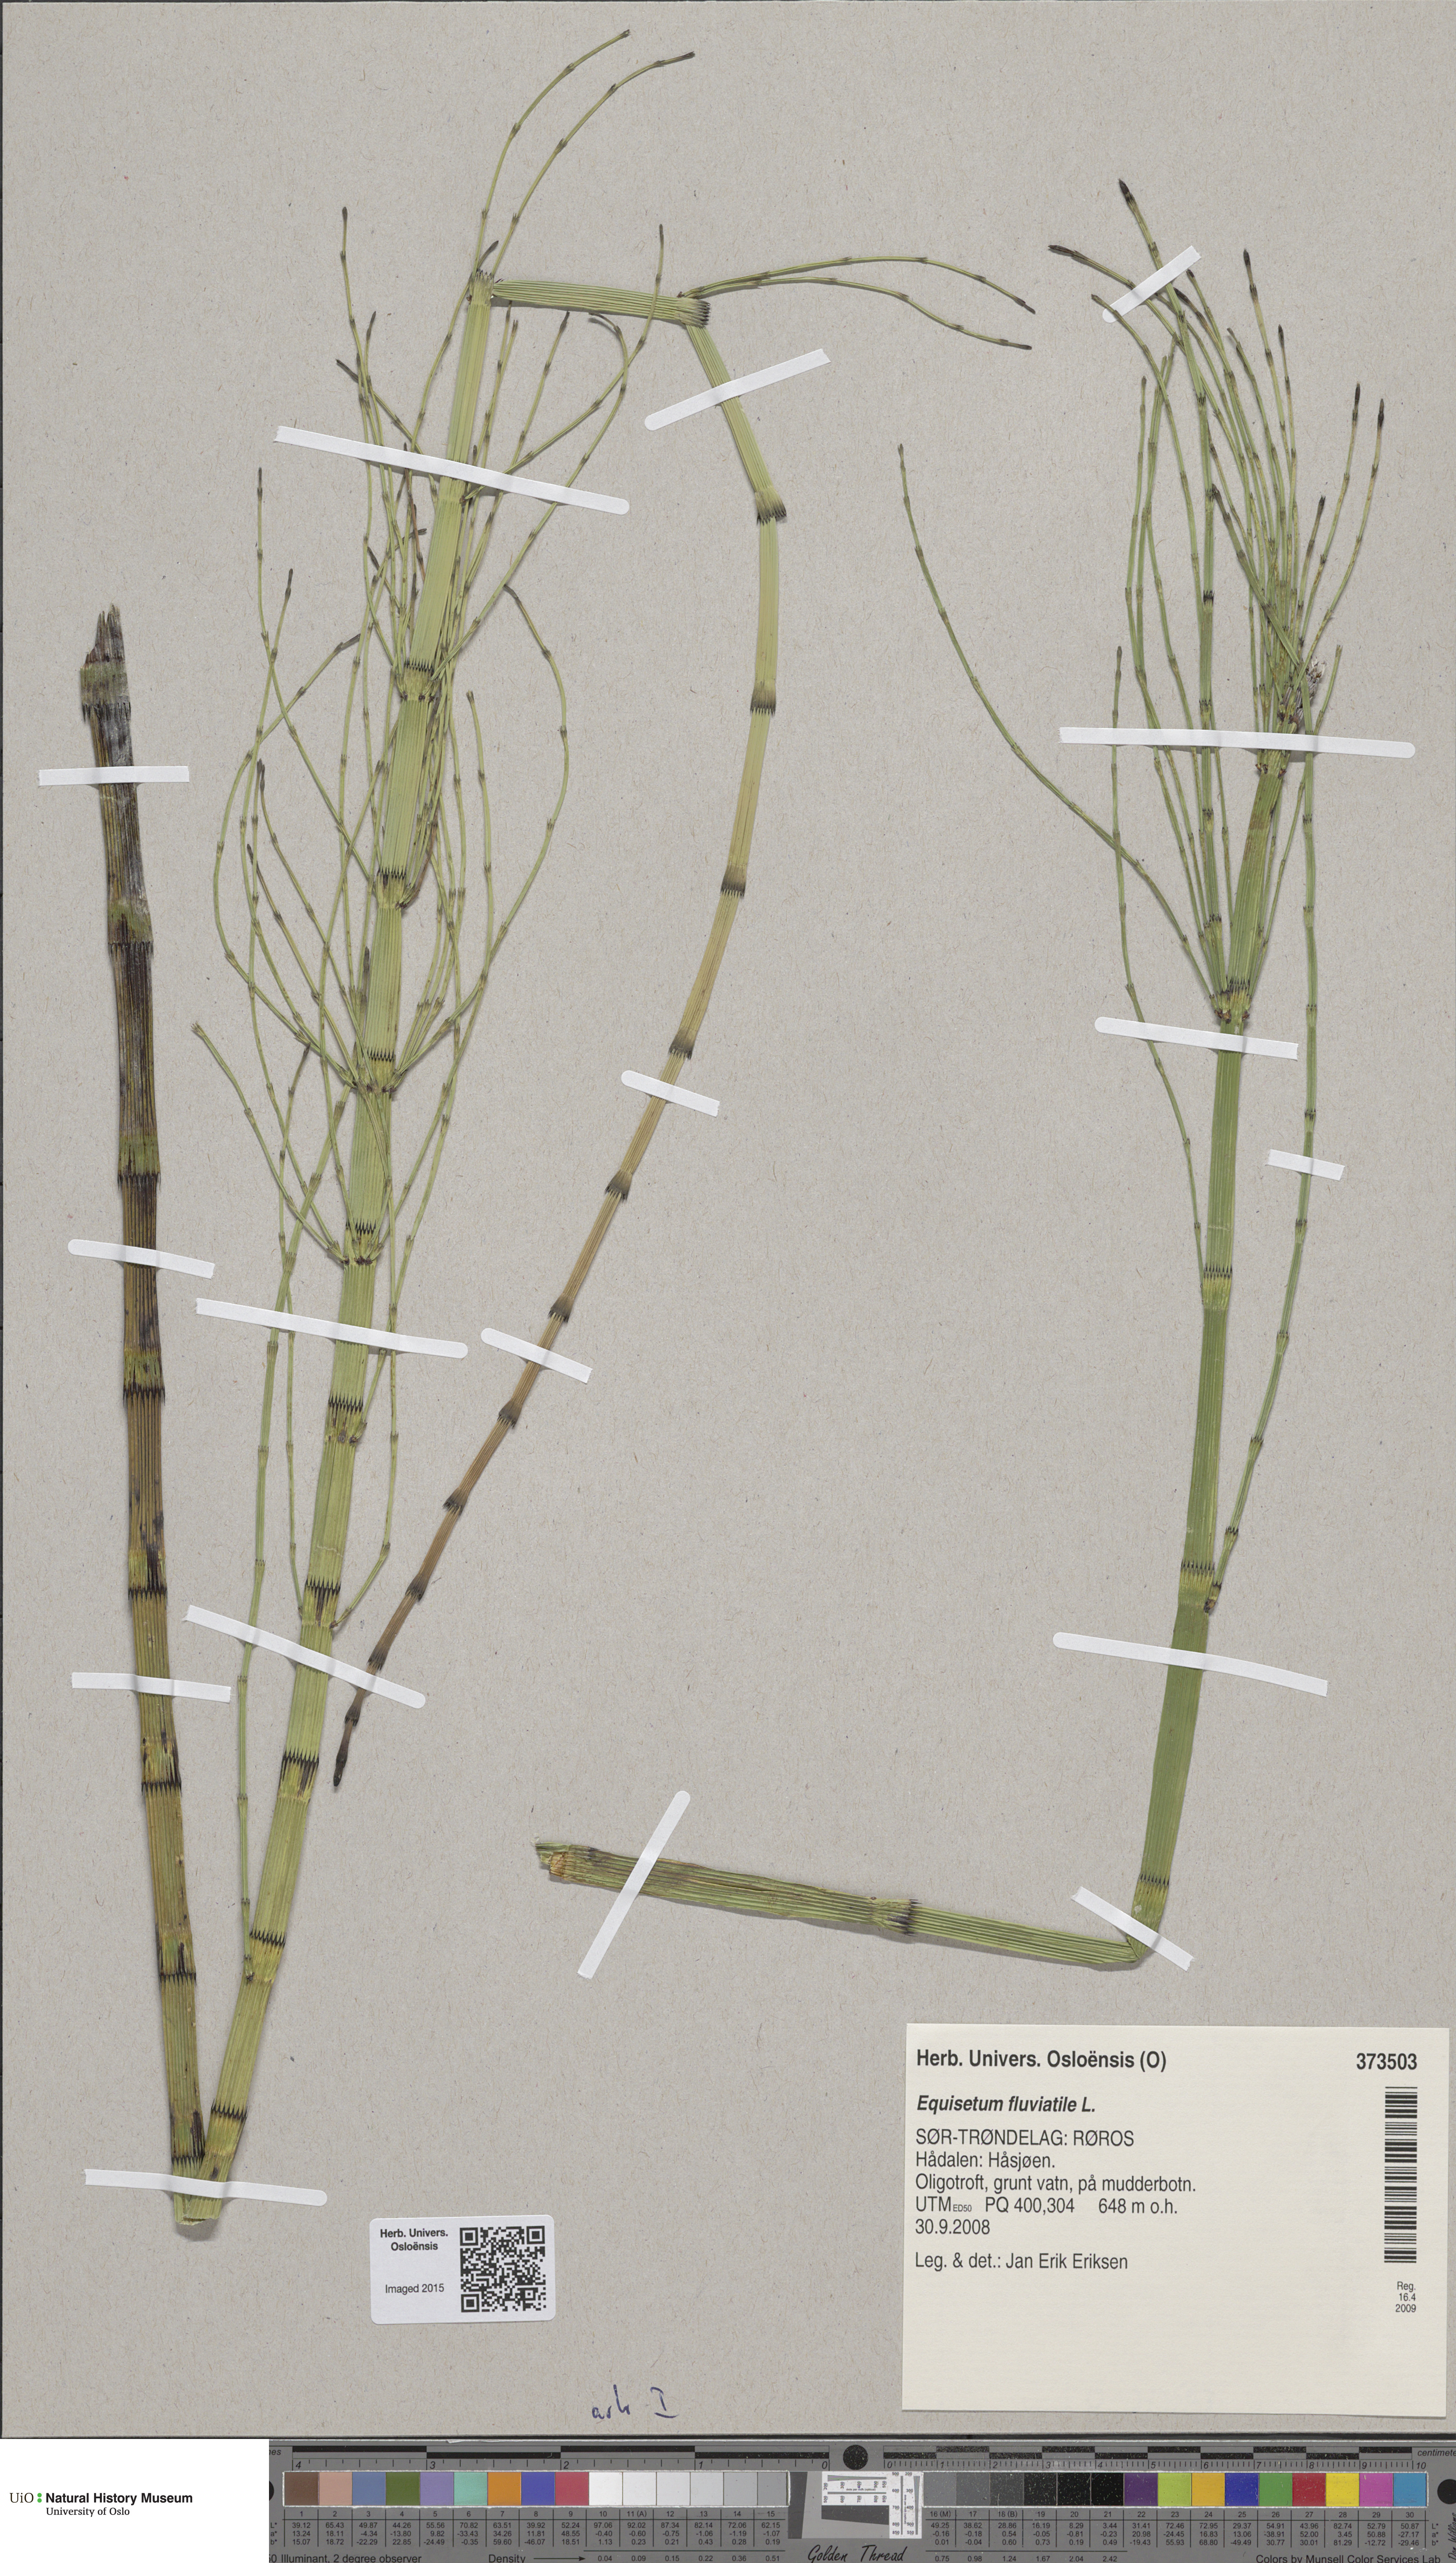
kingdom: Plantae
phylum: Tracheophyta
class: Polypodiopsida
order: Equisetales
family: Equisetaceae
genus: Equisetum
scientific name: Equisetum fluviatile
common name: Water horsetail
